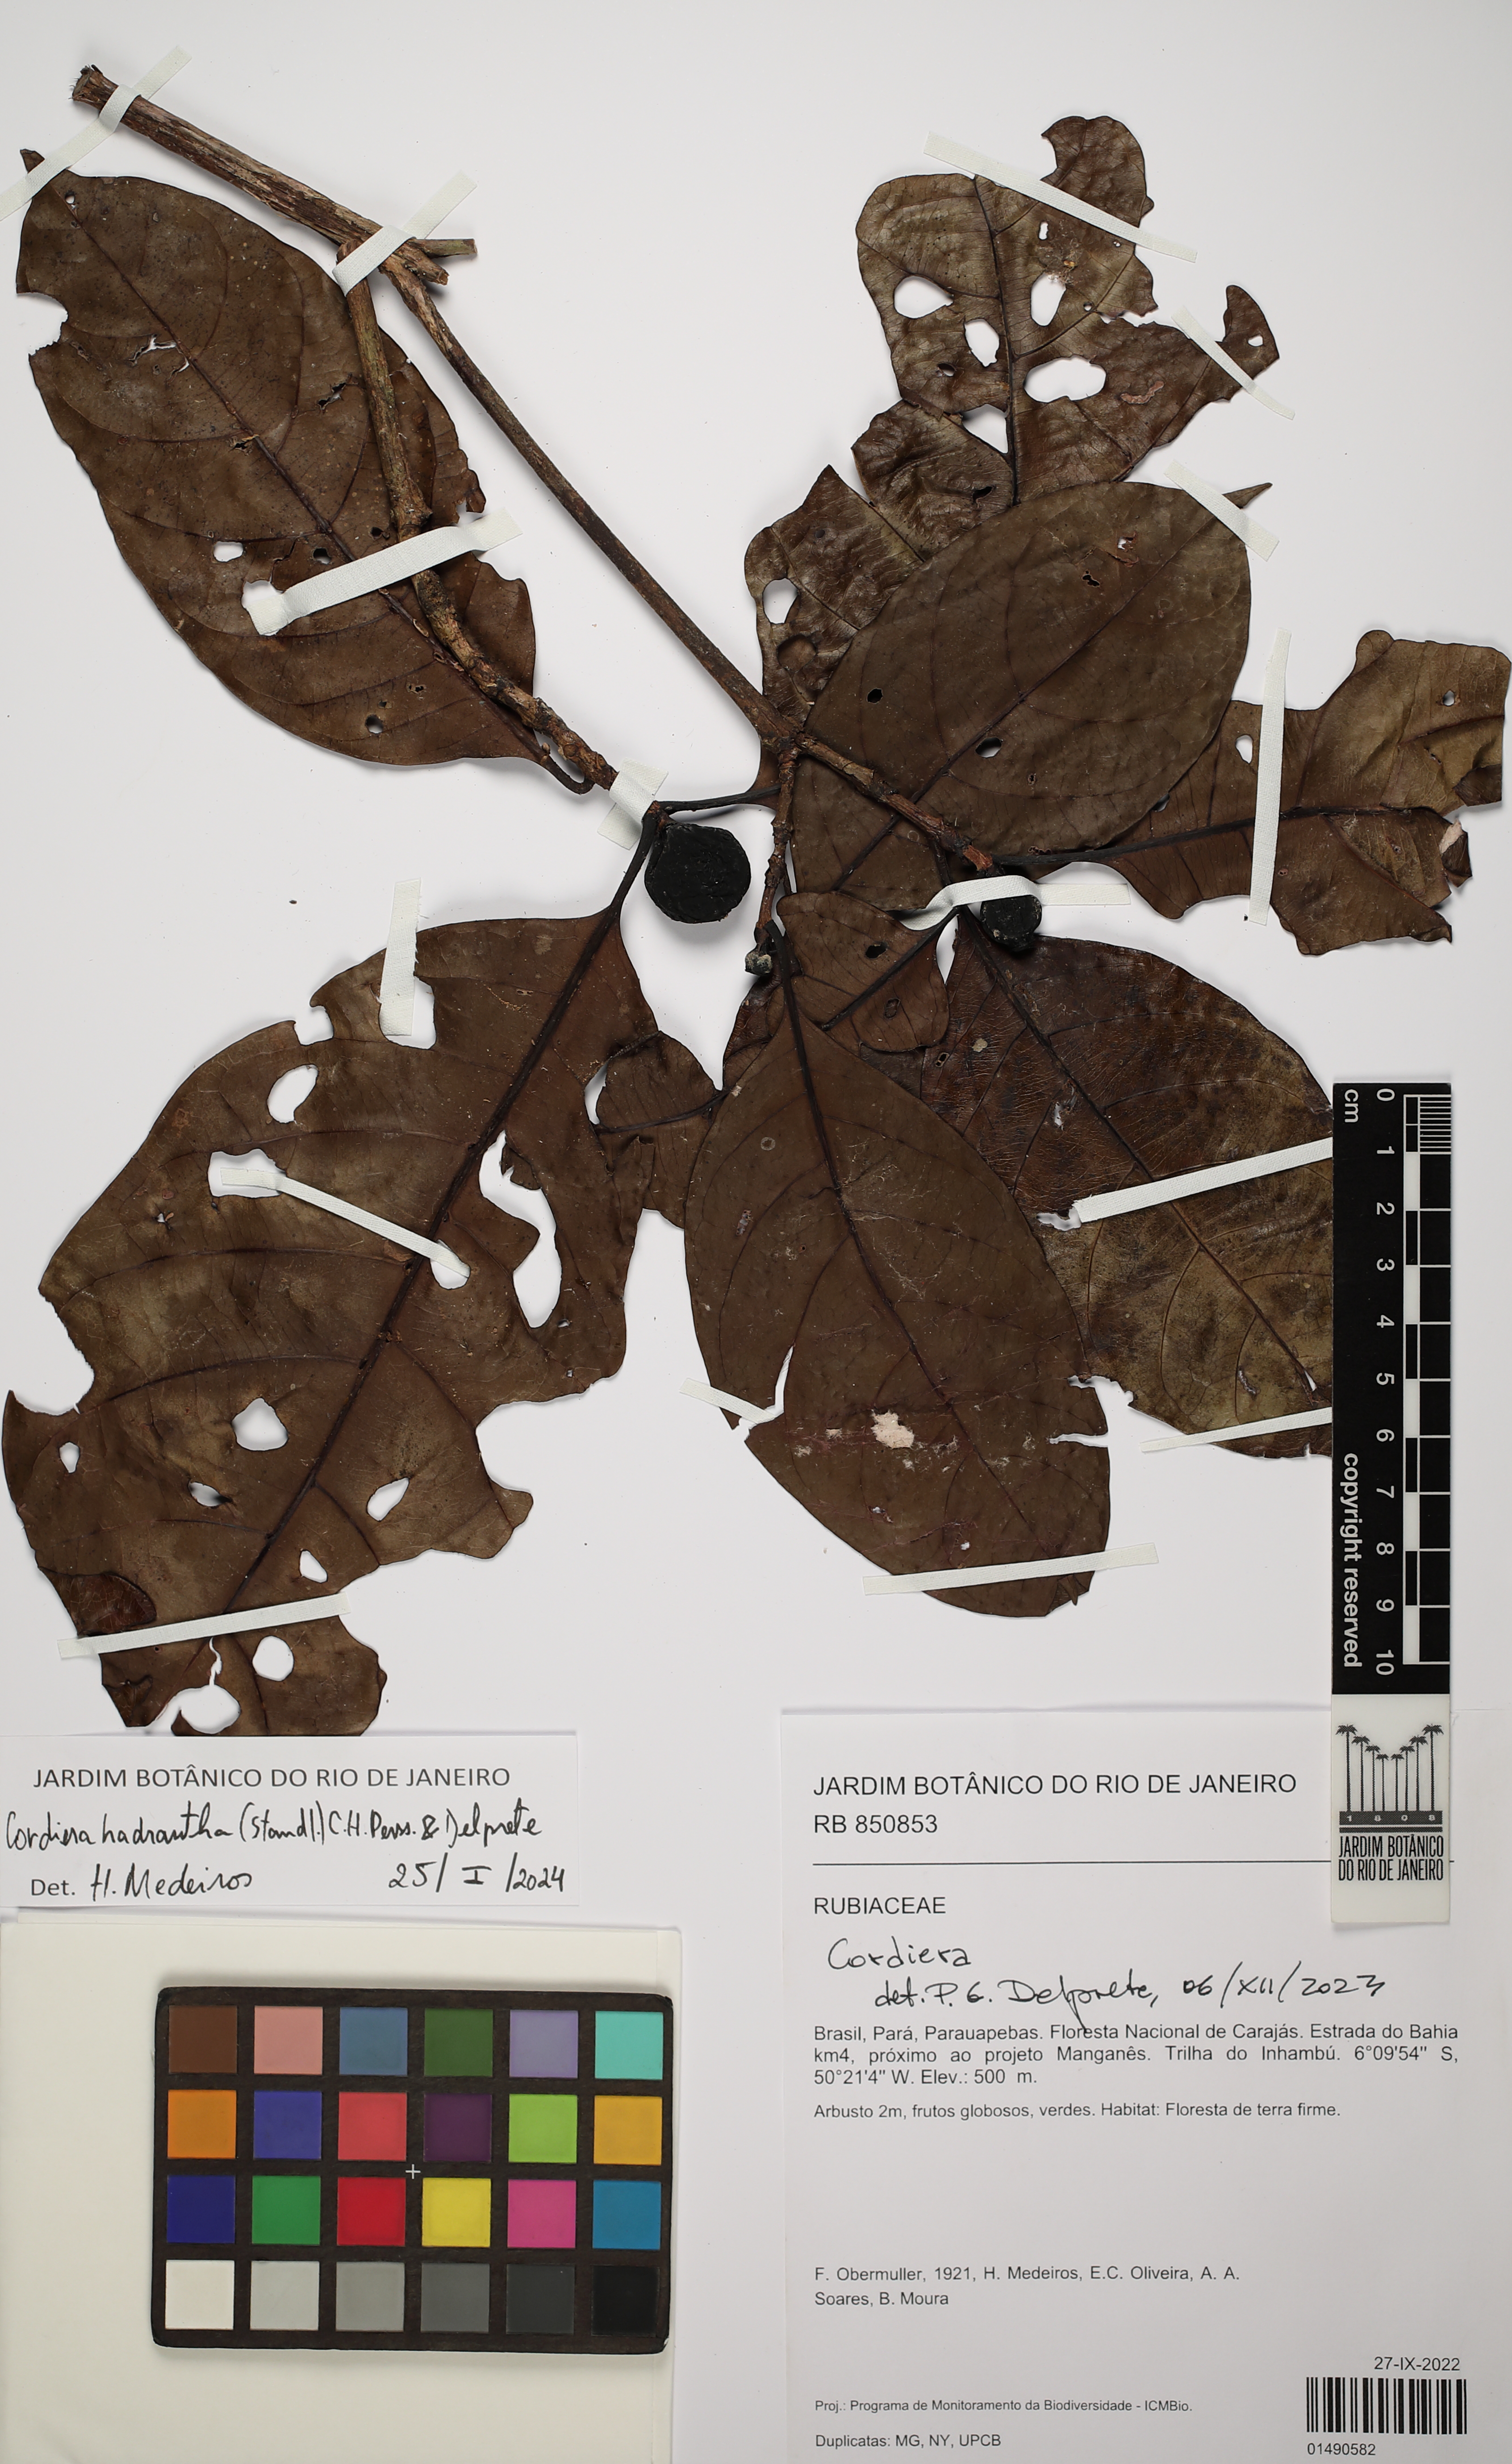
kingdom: Plantae
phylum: Tracheophyta
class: Magnoliopsida
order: Gentianales
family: Rubiaceae
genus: Cordiera
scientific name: Cordiera hadrantha
